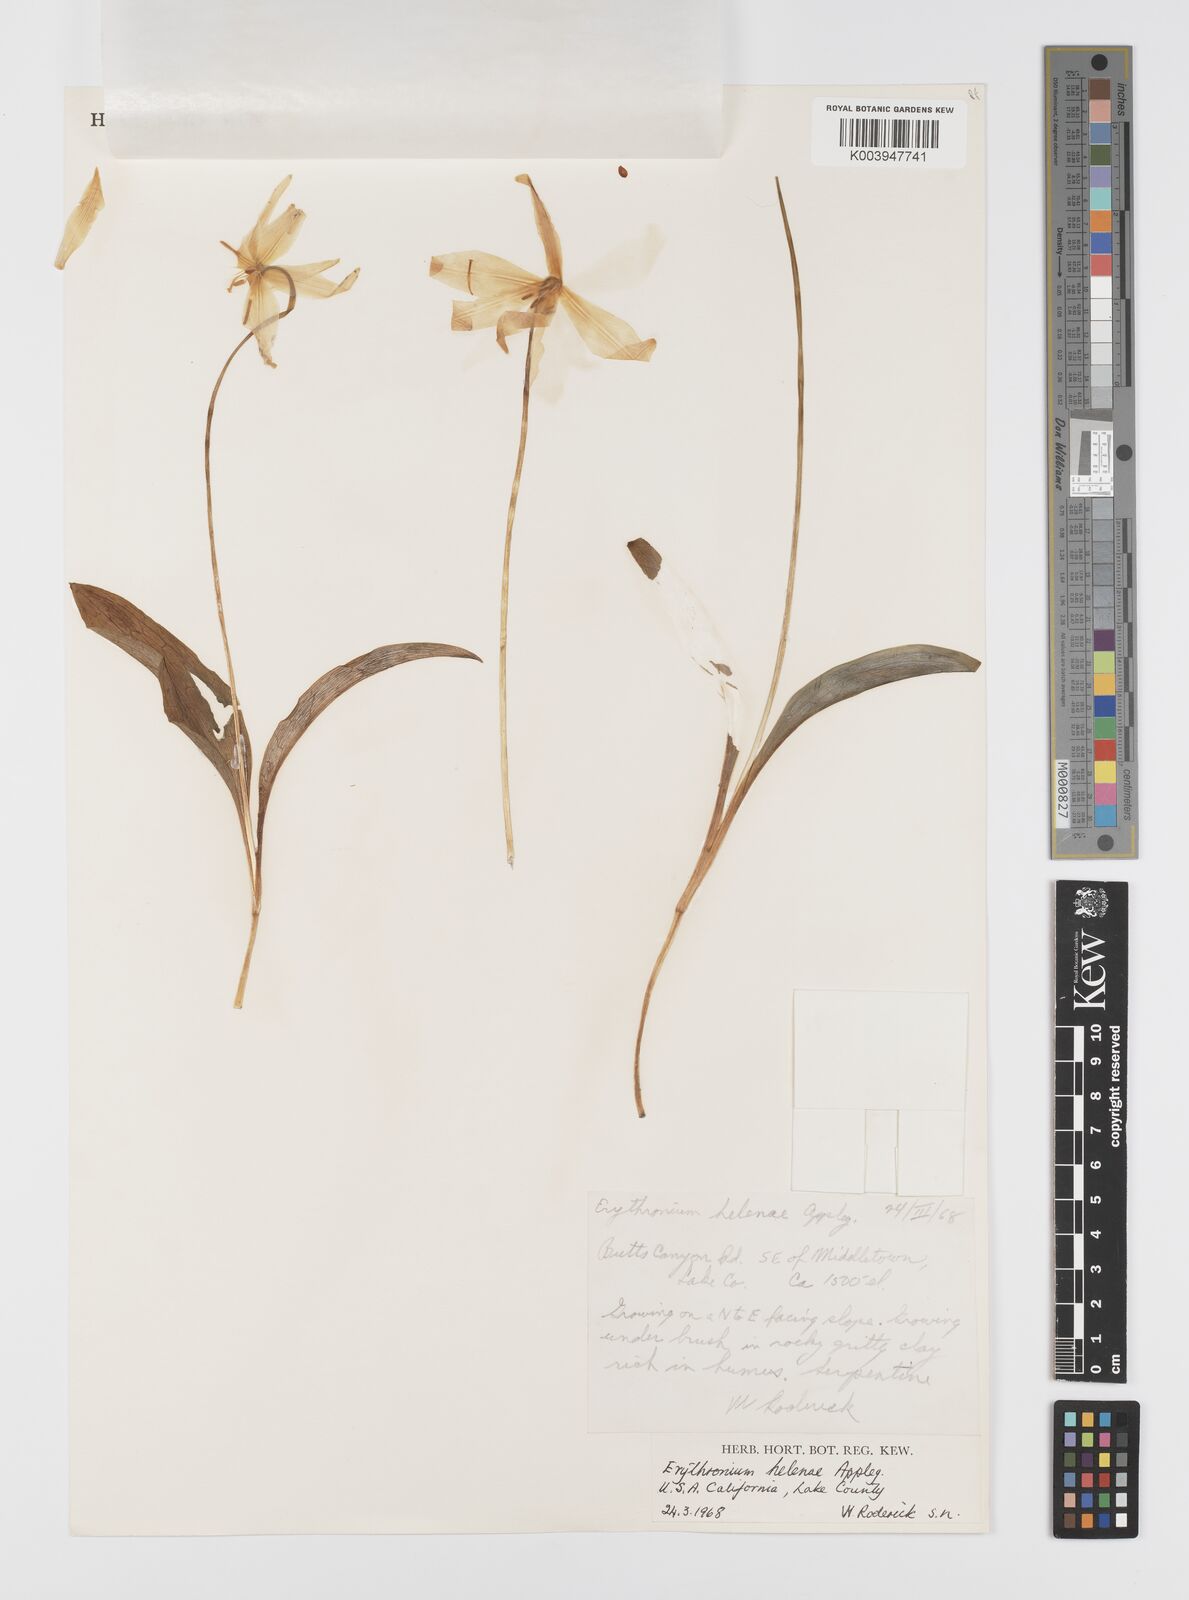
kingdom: Plantae
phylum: Tracheophyta
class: Liliopsida
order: Liliales
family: Liliaceae
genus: Erythronium
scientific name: Erythronium helenae
